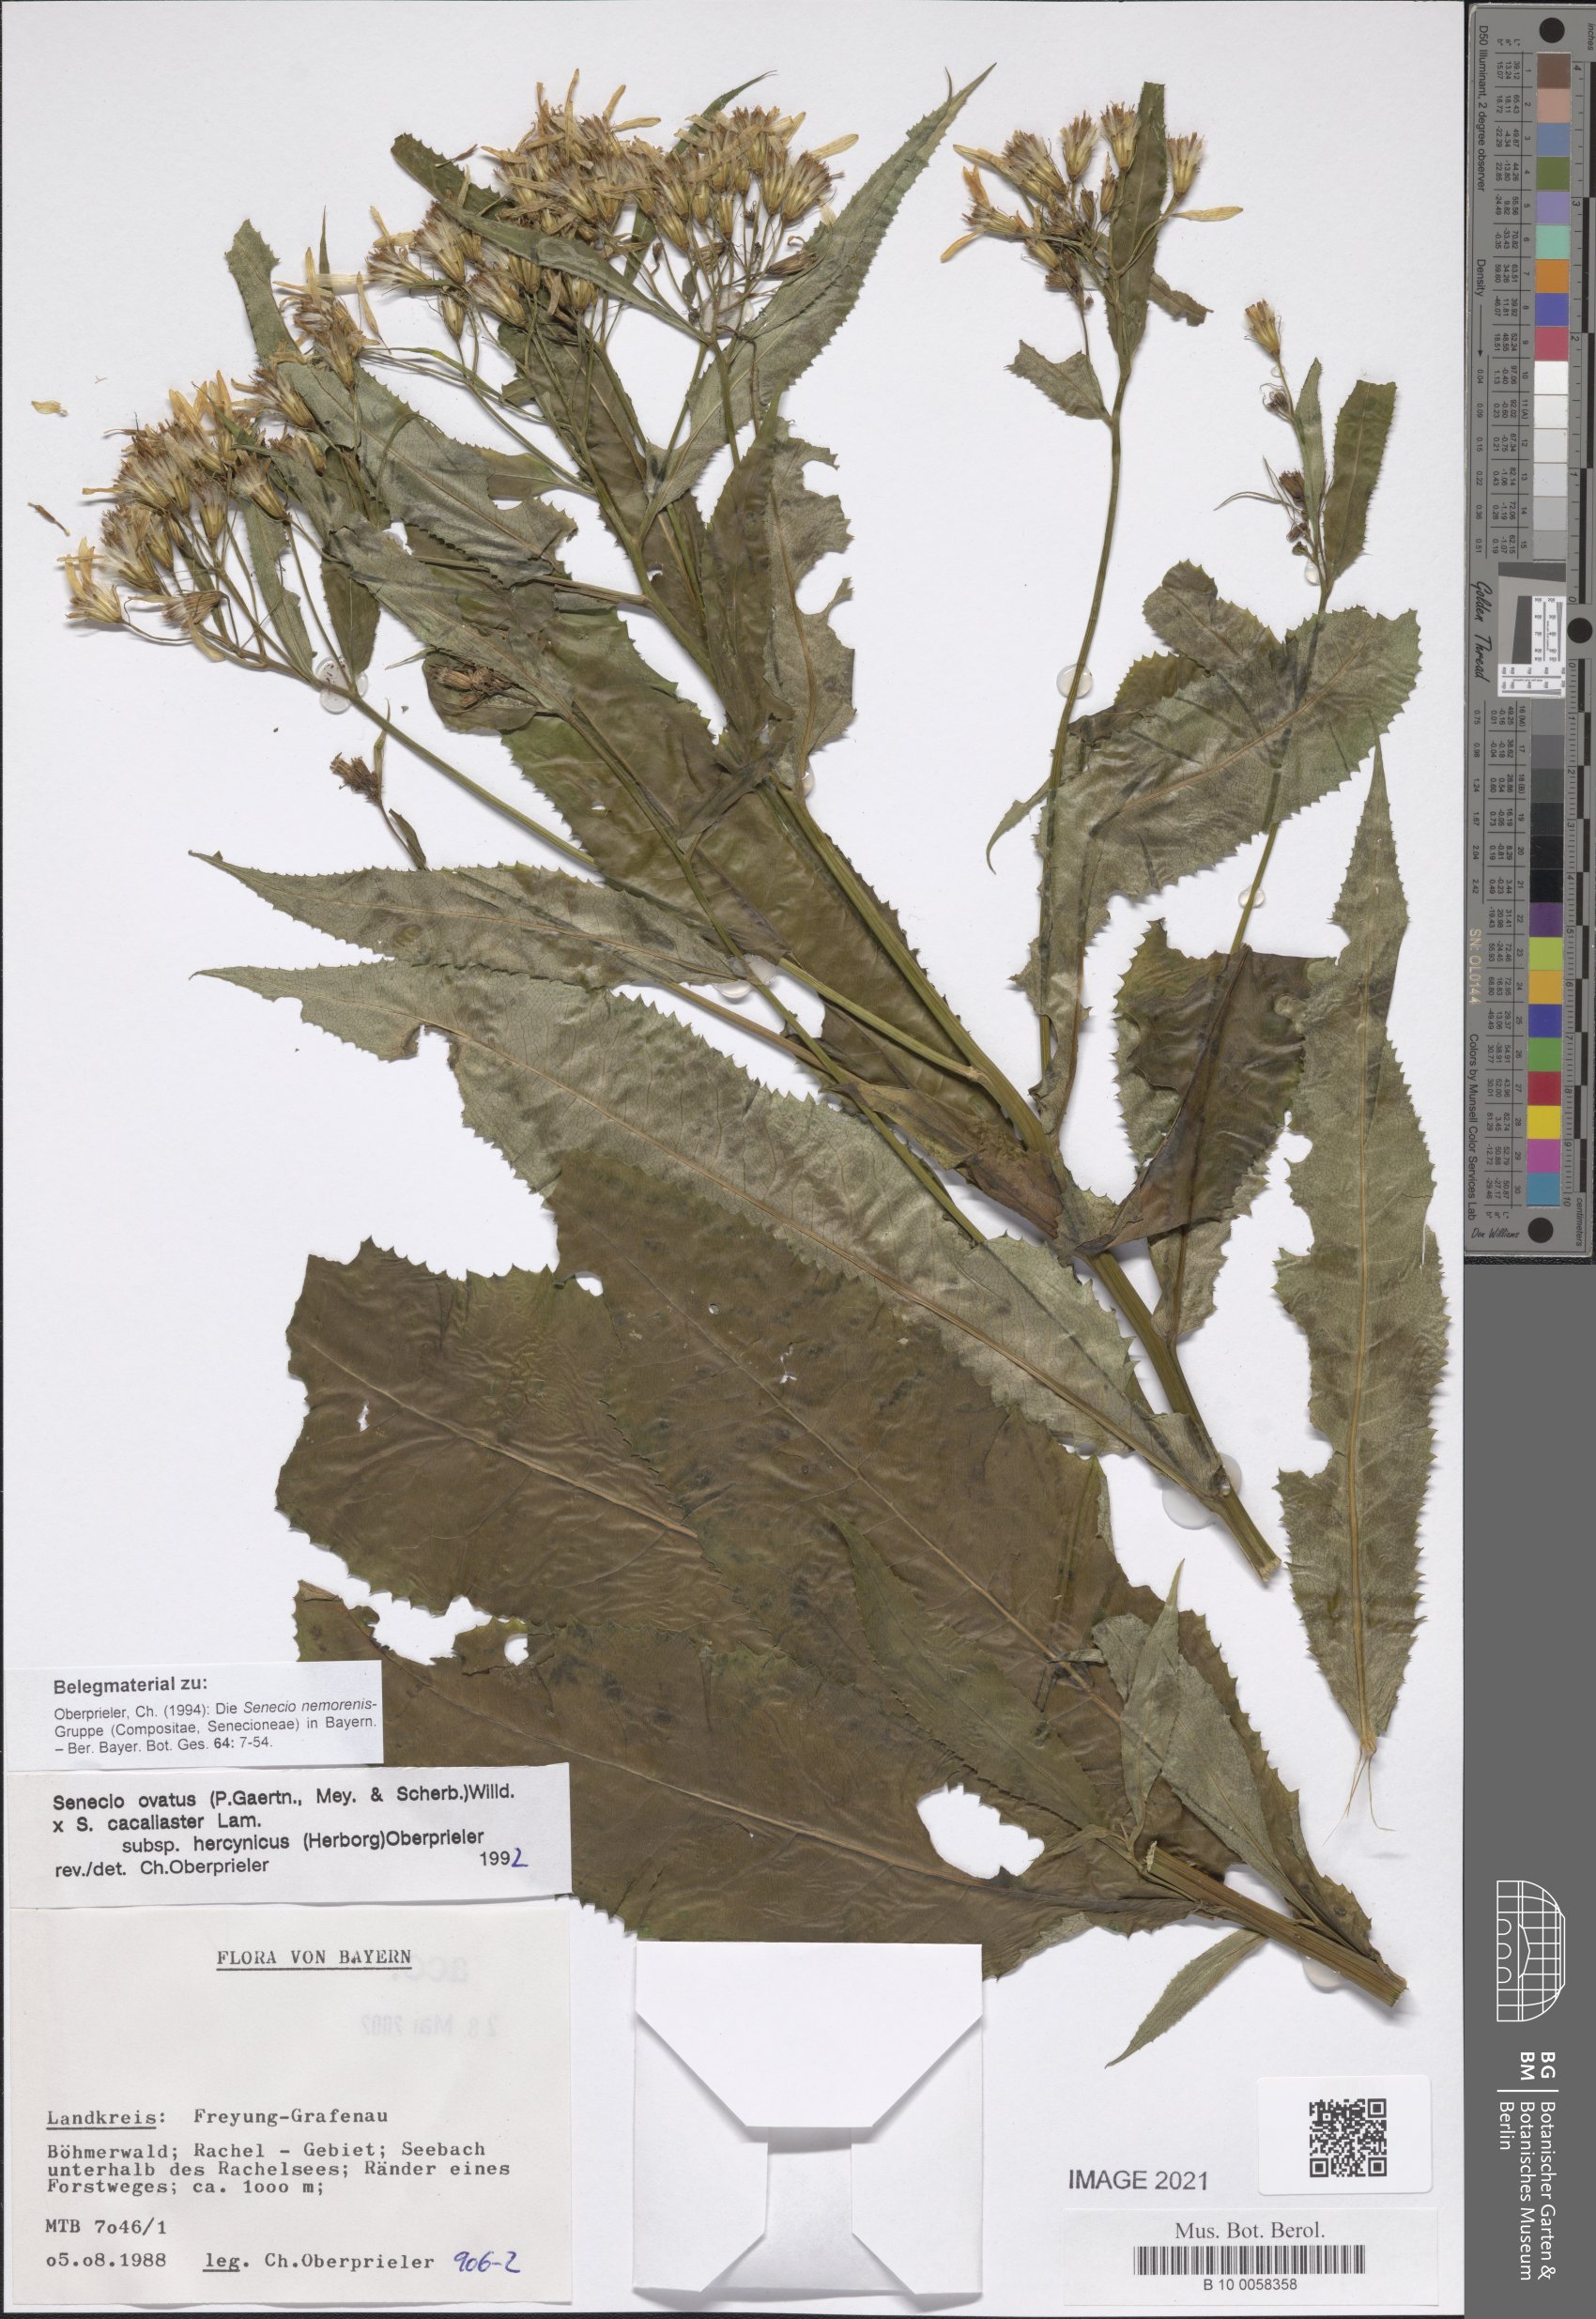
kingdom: Plantae
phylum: Tracheophyta
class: Magnoliopsida
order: Asterales
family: Asteraceae
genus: Senecio
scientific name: Senecio ovatus
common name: Wood ragwort
